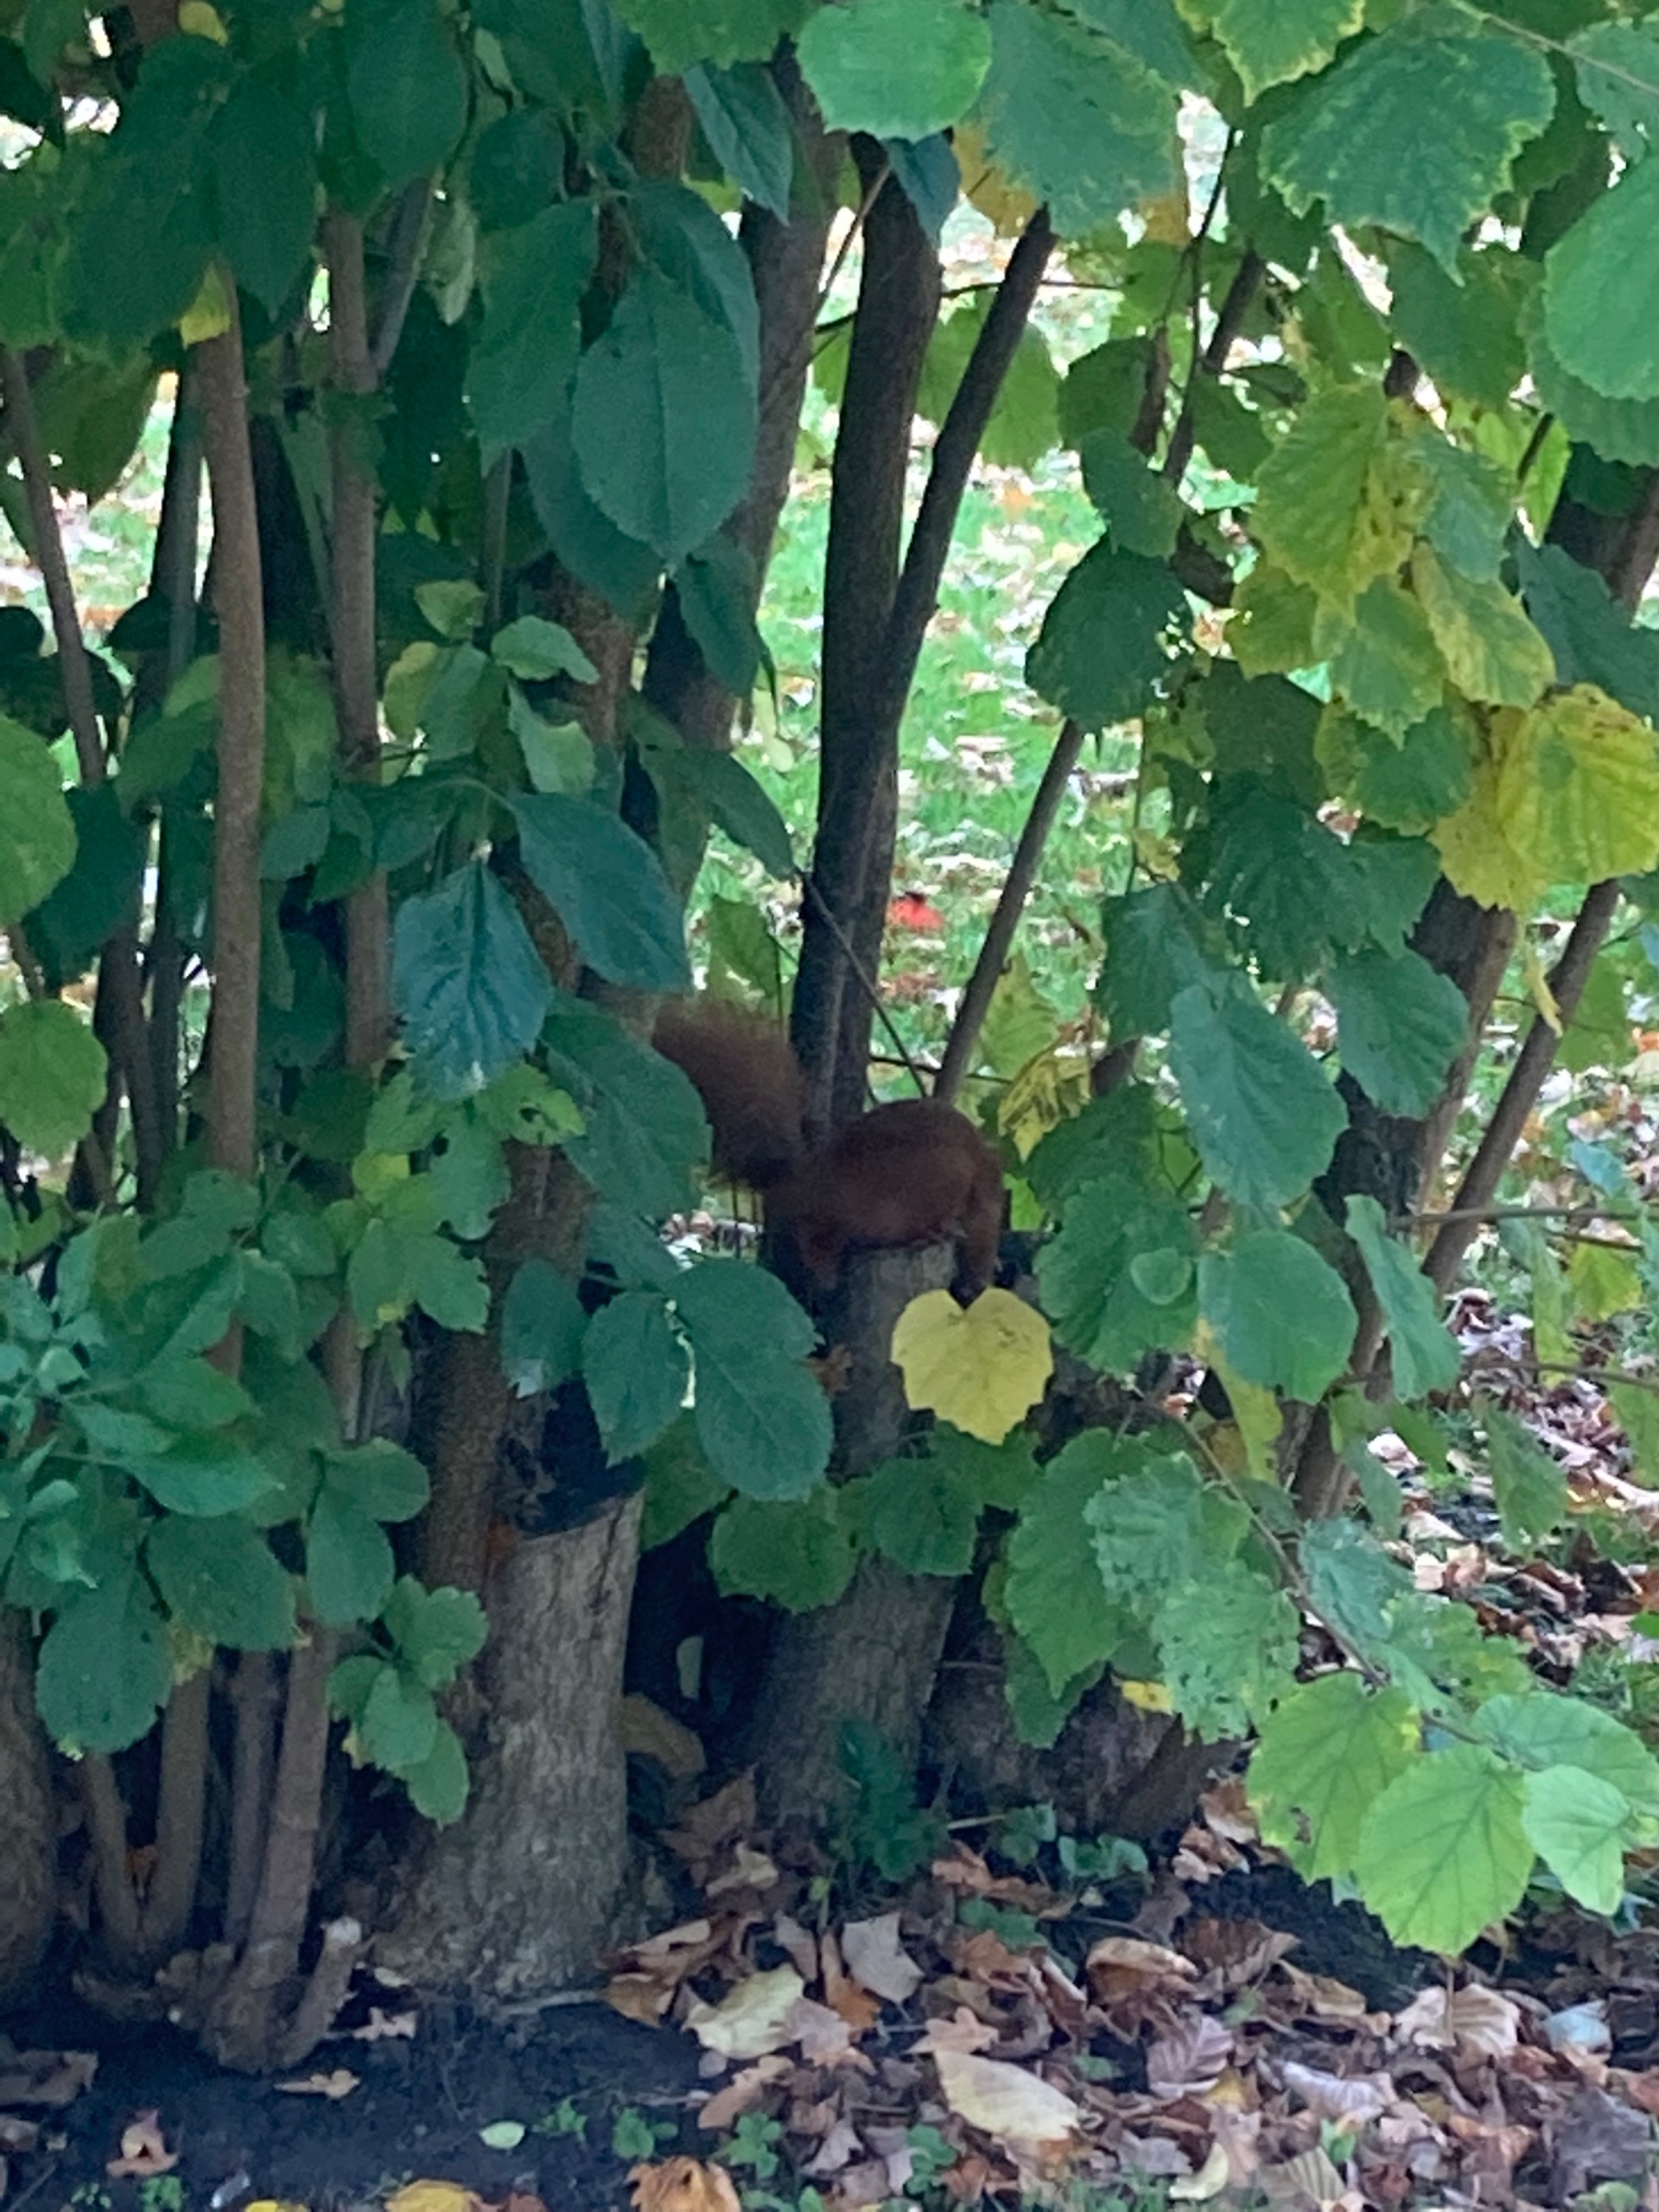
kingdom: Animalia
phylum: Chordata
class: Mammalia
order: Rodentia
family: Sciuridae
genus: Sciurus
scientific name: Sciurus vulgaris
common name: Egern
